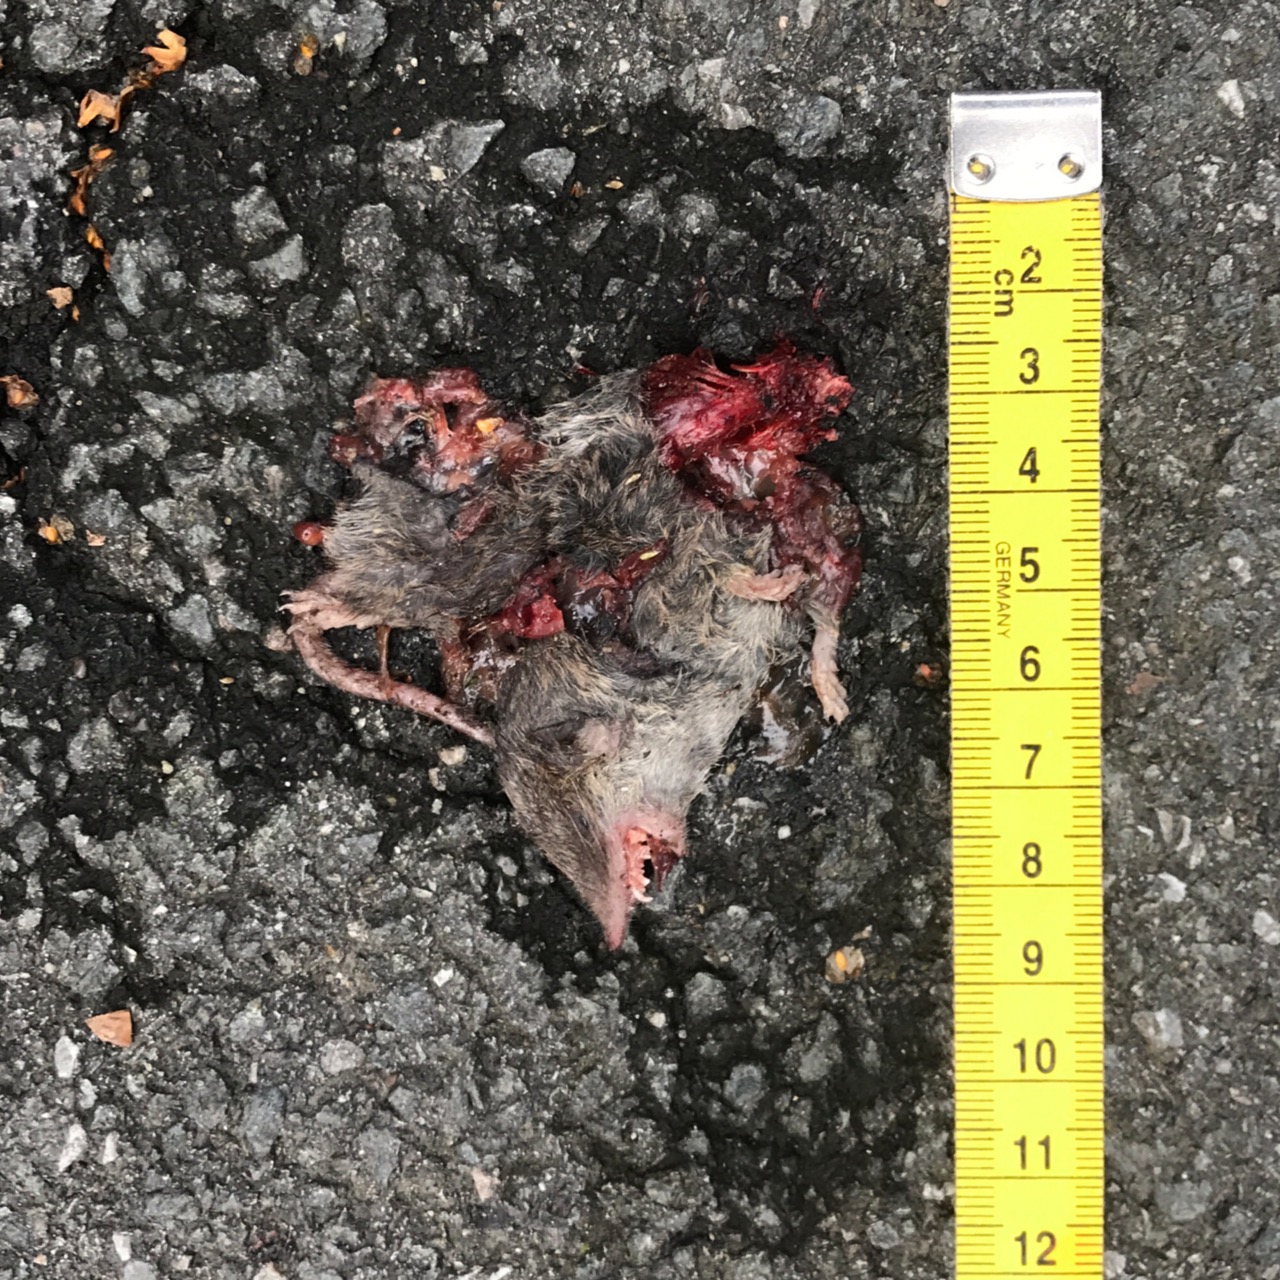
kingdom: Animalia
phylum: Chordata
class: Mammalia
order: Soricomorpha
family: Soricidae
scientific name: Soricidae
